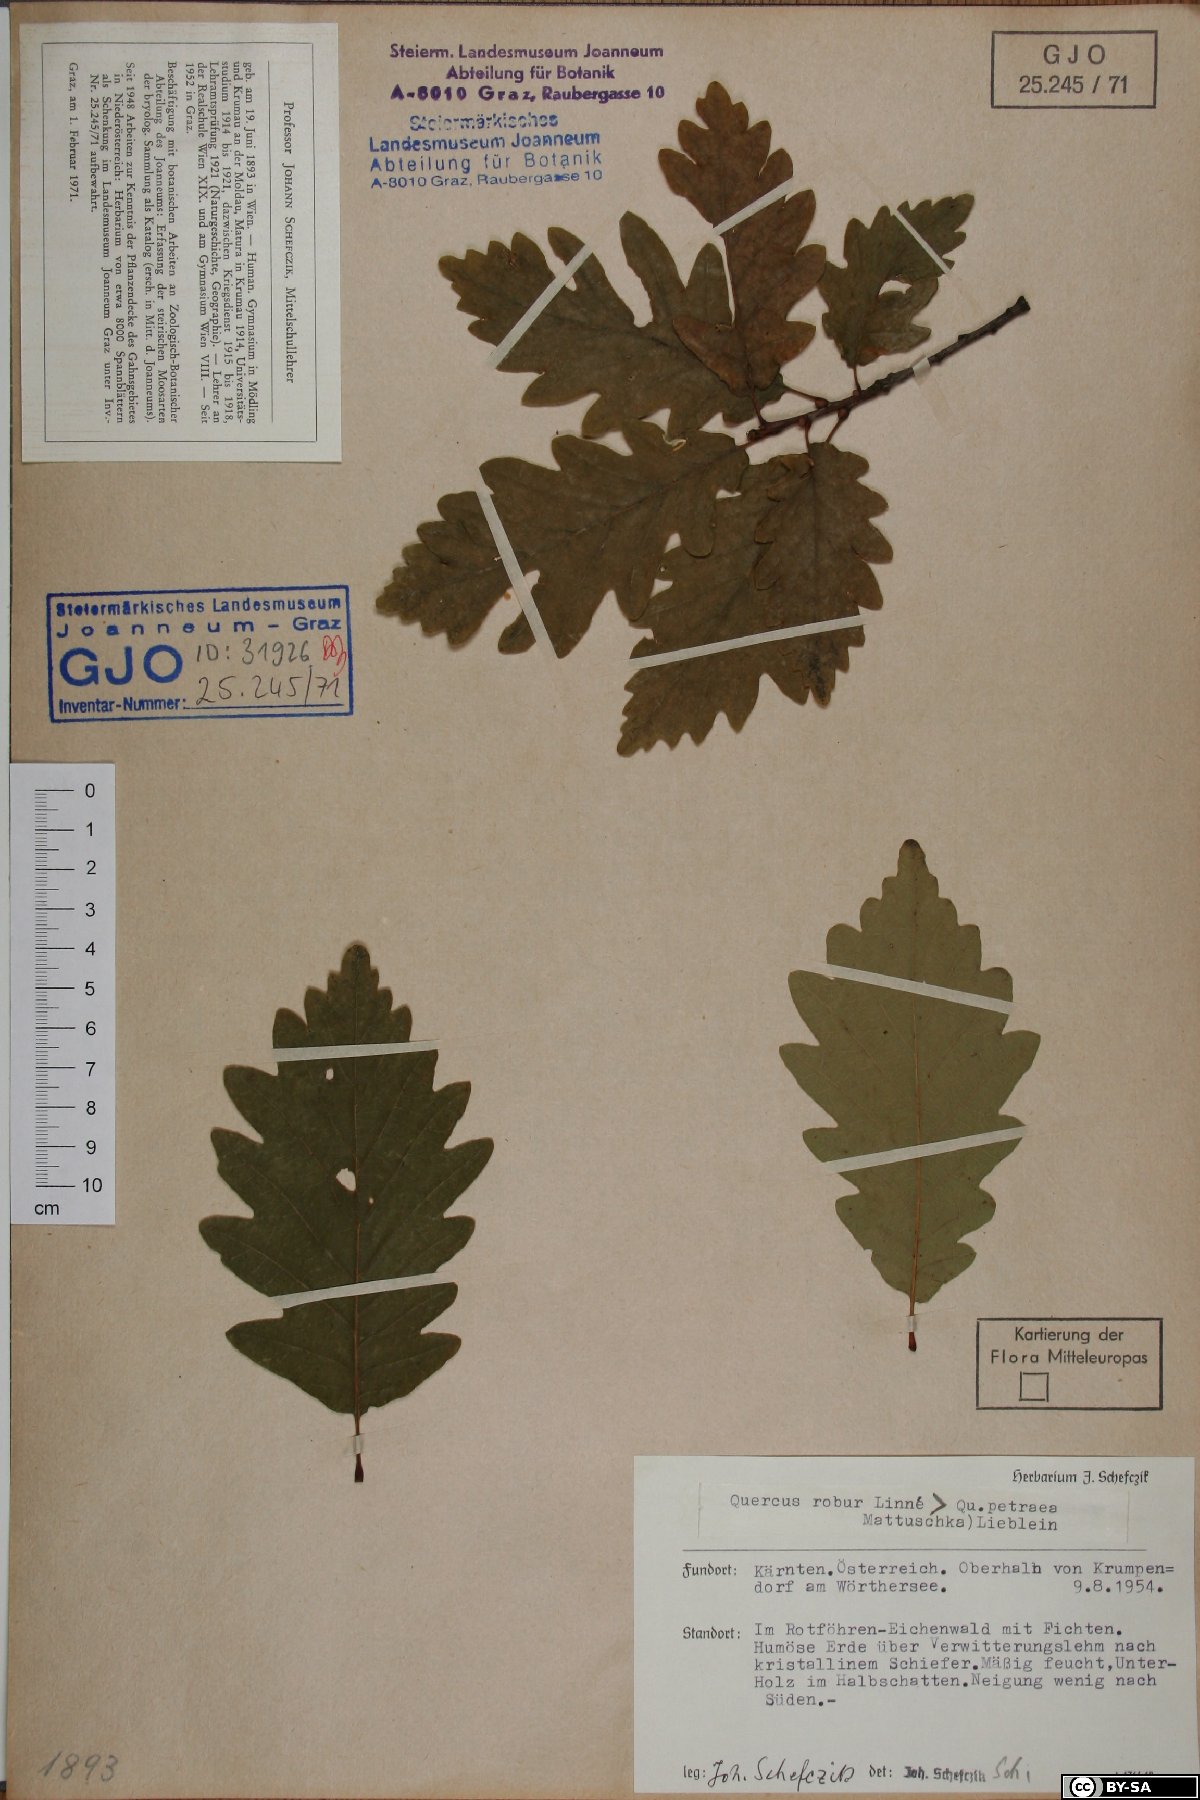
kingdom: Plantae
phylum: Tracheophyta
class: Magnoliopsida
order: Fagales
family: Fagaceae
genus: Quercus
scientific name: Quercus petraea
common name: Sessile oak
